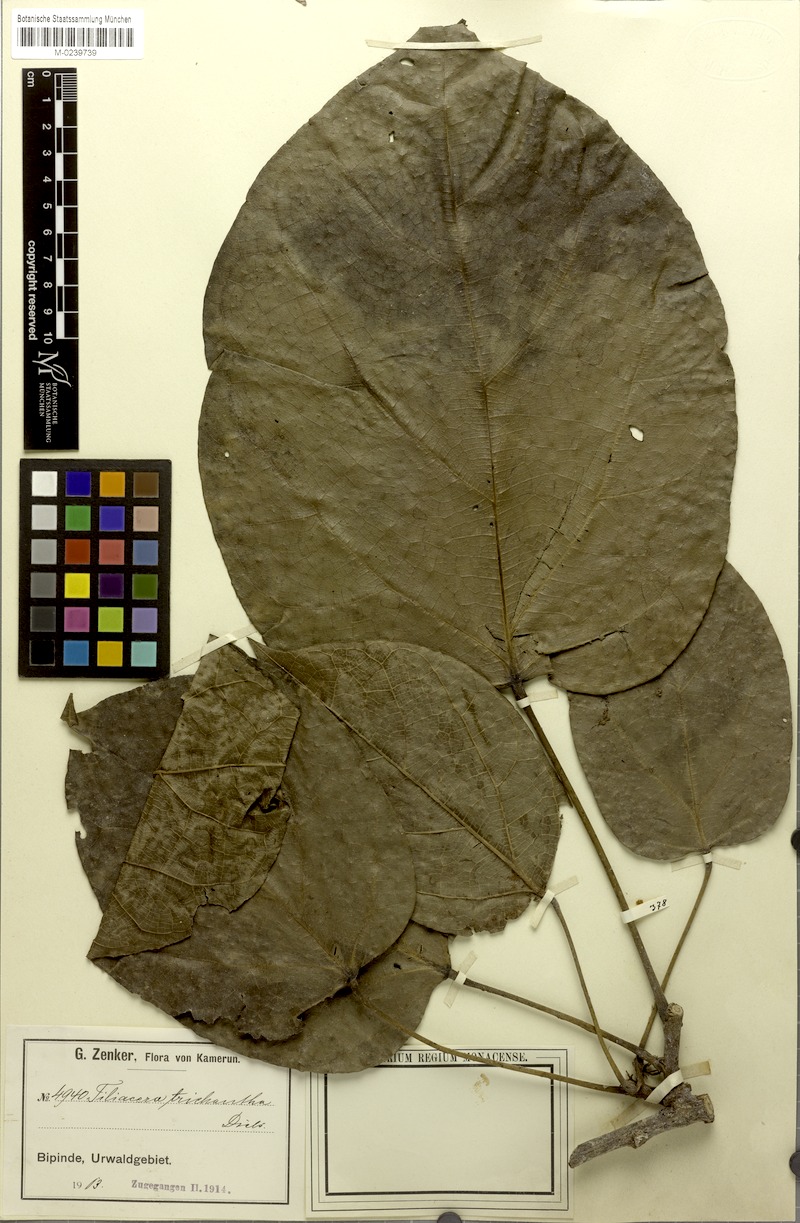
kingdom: Plantae
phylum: Tracheophyta
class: Magnoliopsida
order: Ranunculales
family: Menispermaceae
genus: Triclisia
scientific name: Triclisia dictyophylla
